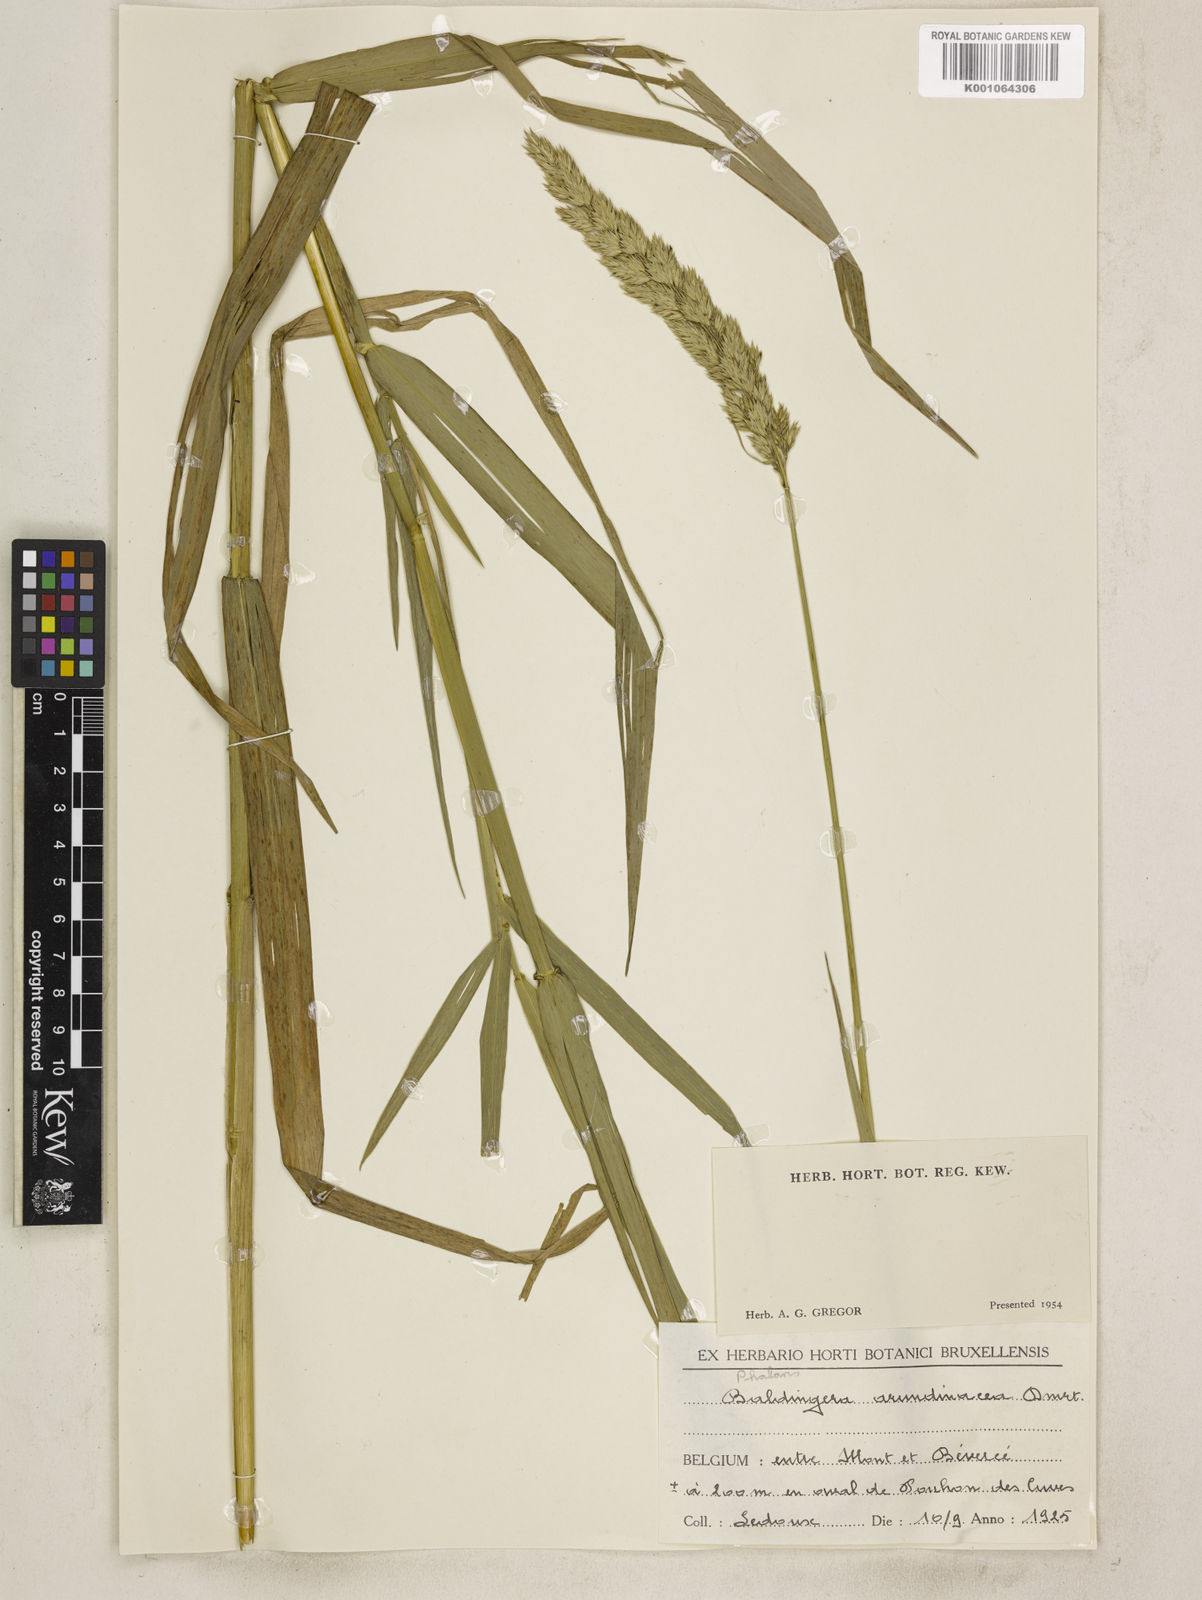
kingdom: Plantae
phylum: Tracheophyta
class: Liliopsida
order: Poales
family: Poaceae
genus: Phalaris
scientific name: Phalaris arundinacea
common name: Reed canary-grass
